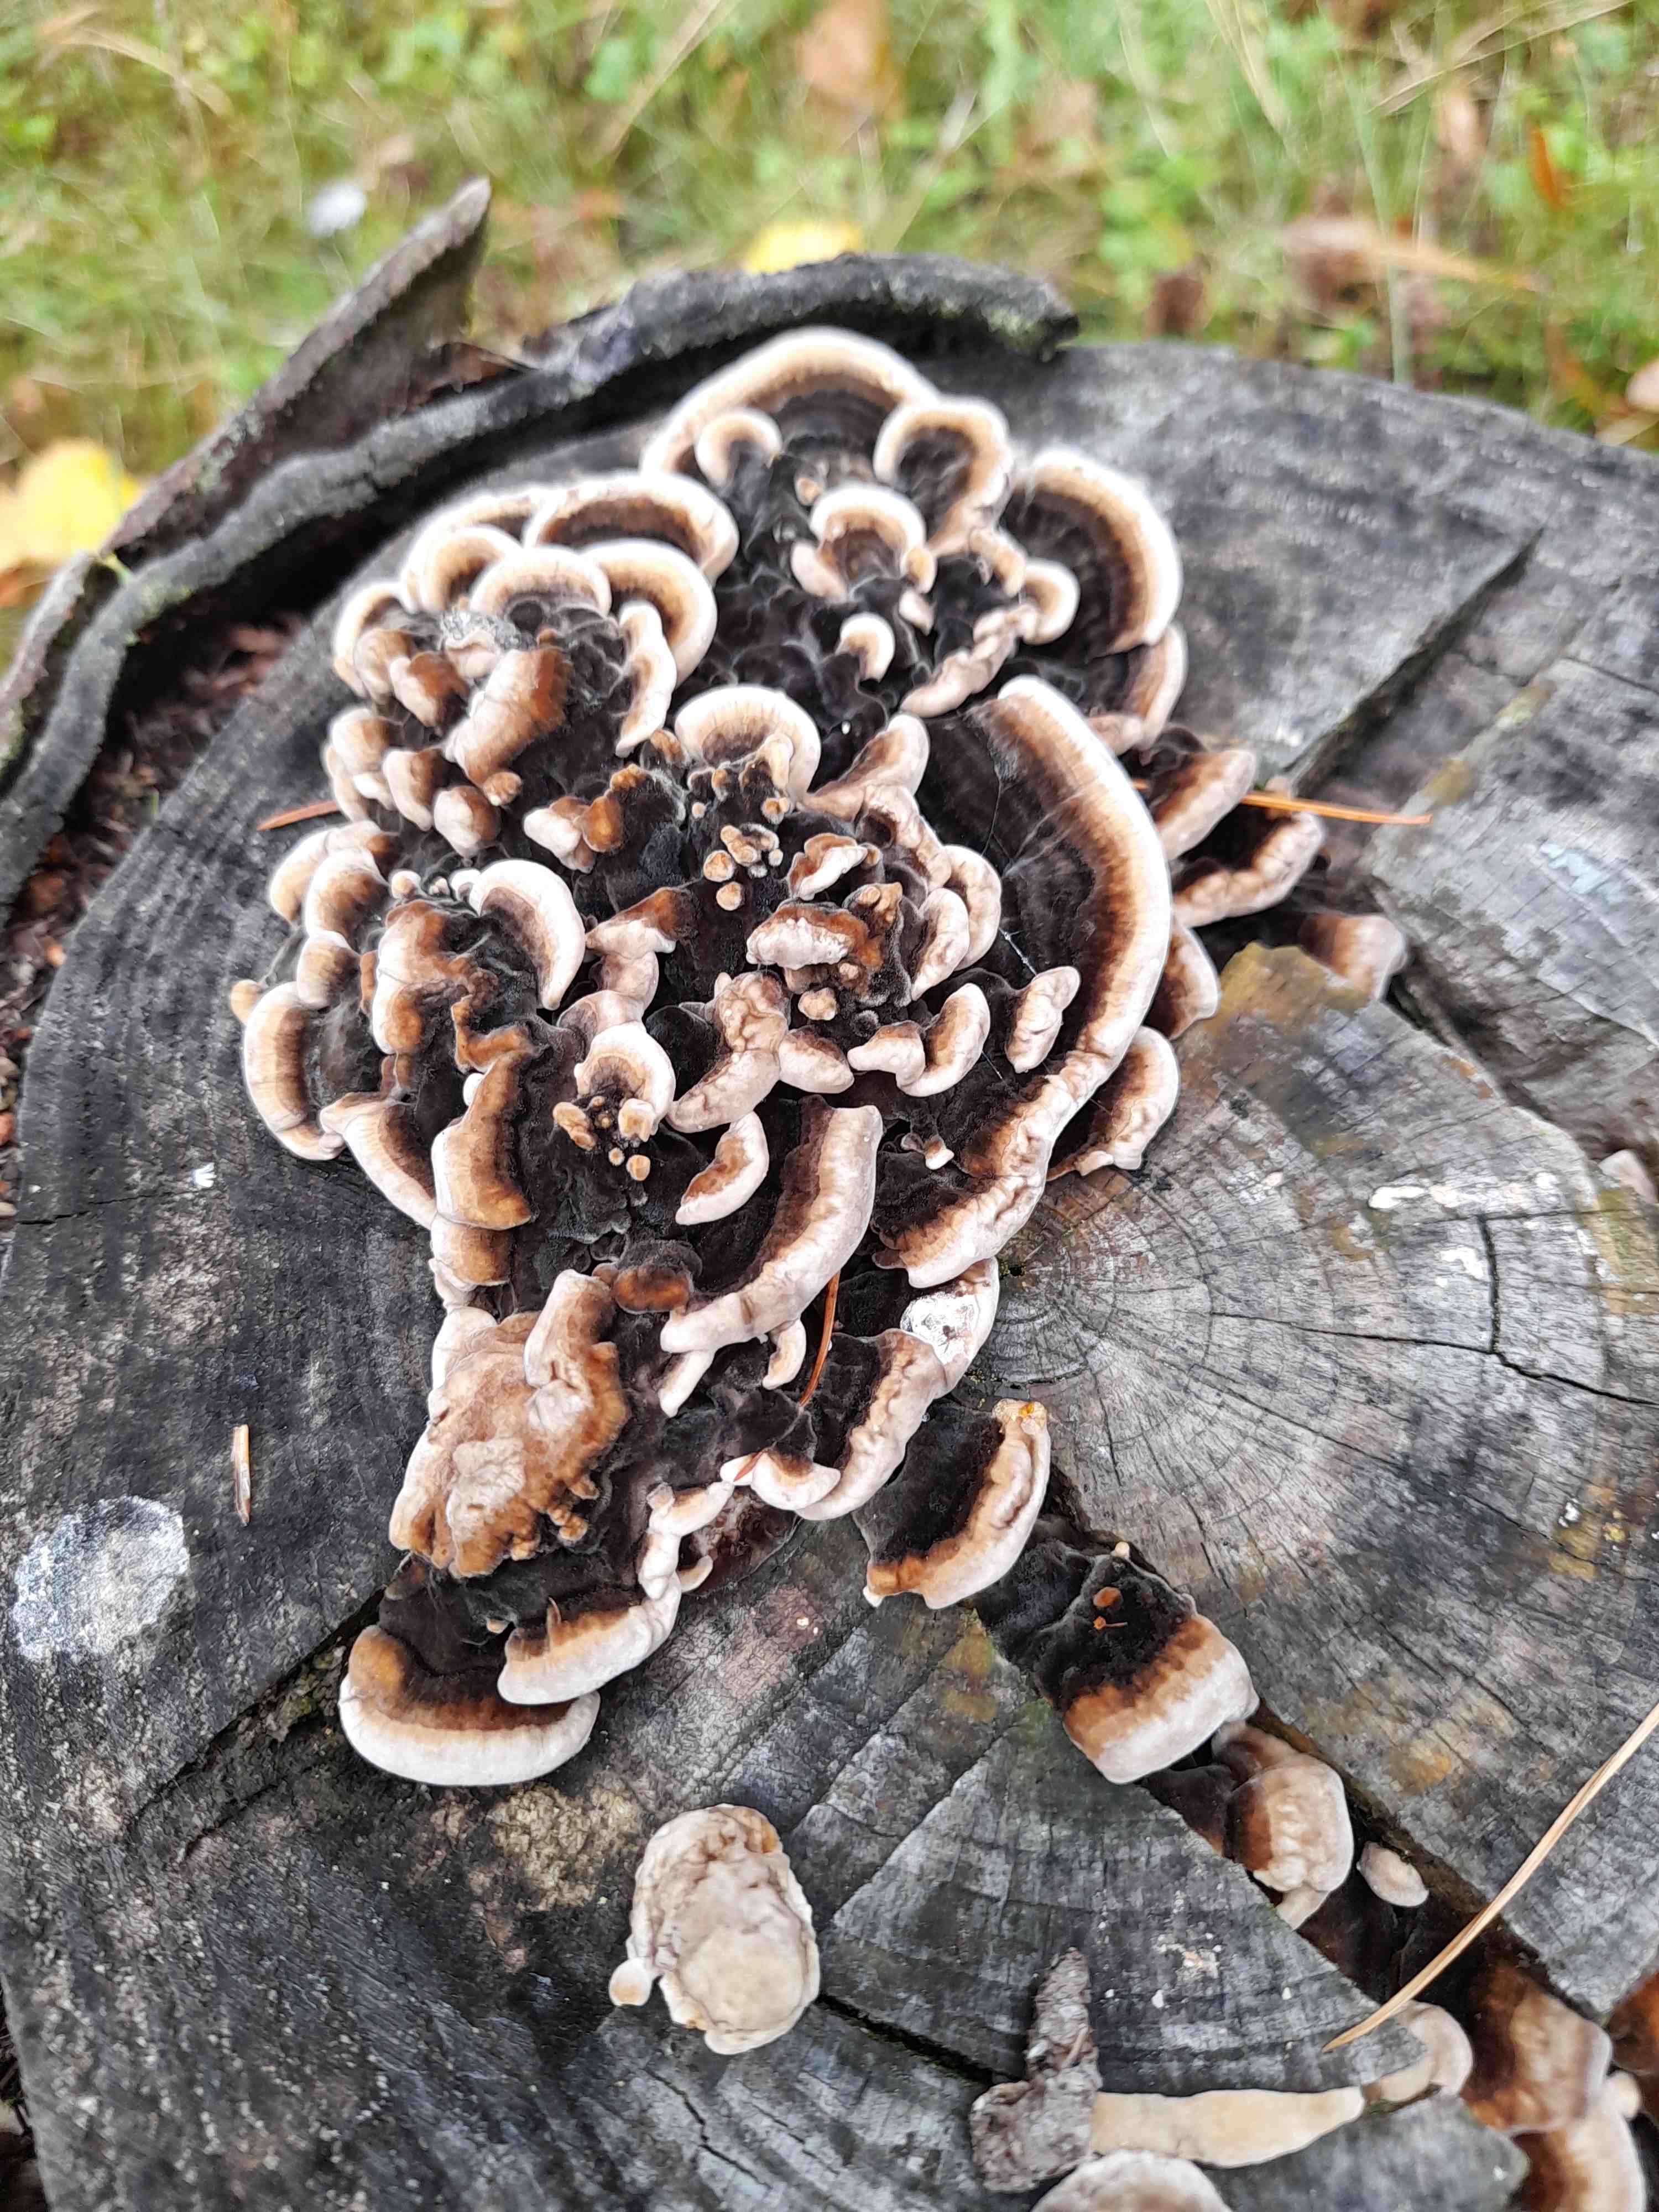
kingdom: Fungi
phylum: Basidiomycota
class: Agaricomycetes
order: Polyporales
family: Polyporaceae
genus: Trametes
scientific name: Trametes versicolor
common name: broget læderporesvamp
